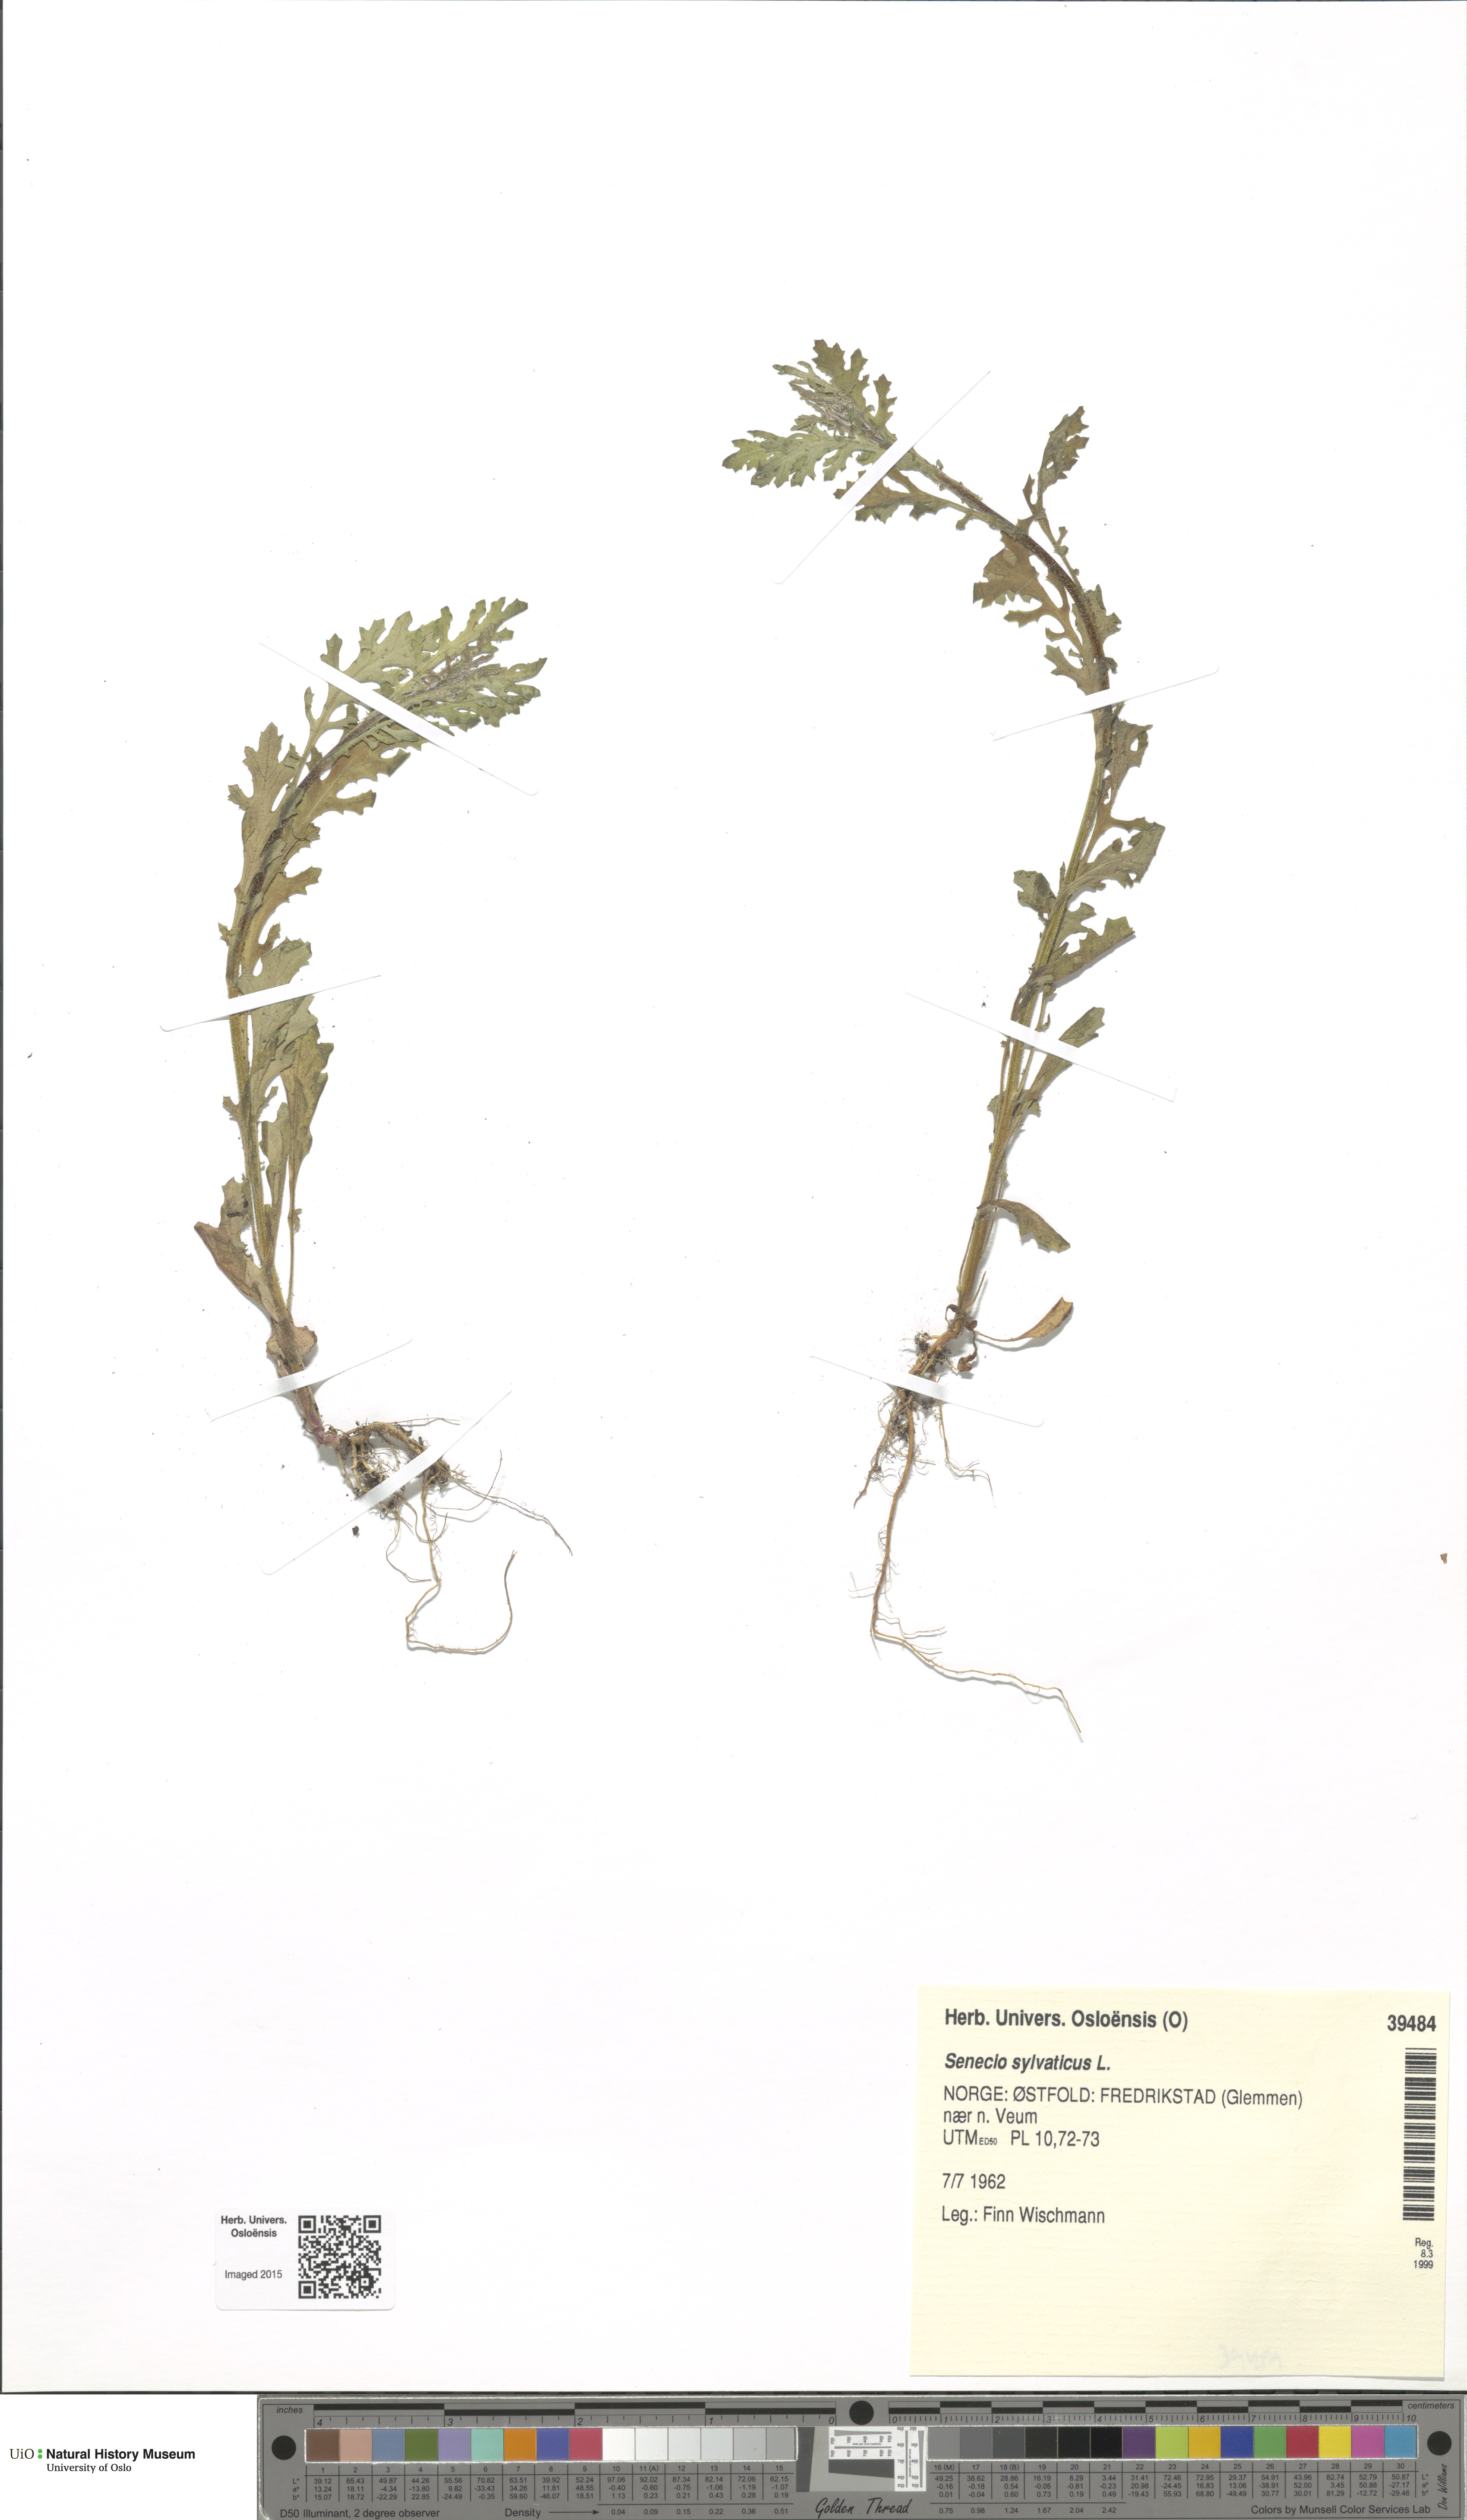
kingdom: Plantae
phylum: Tracheophyta
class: Magnoliopsida
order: Asterales
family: Asteraceae
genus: Senecio
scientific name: Senecio sylvaticus
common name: Woodland ragwort
